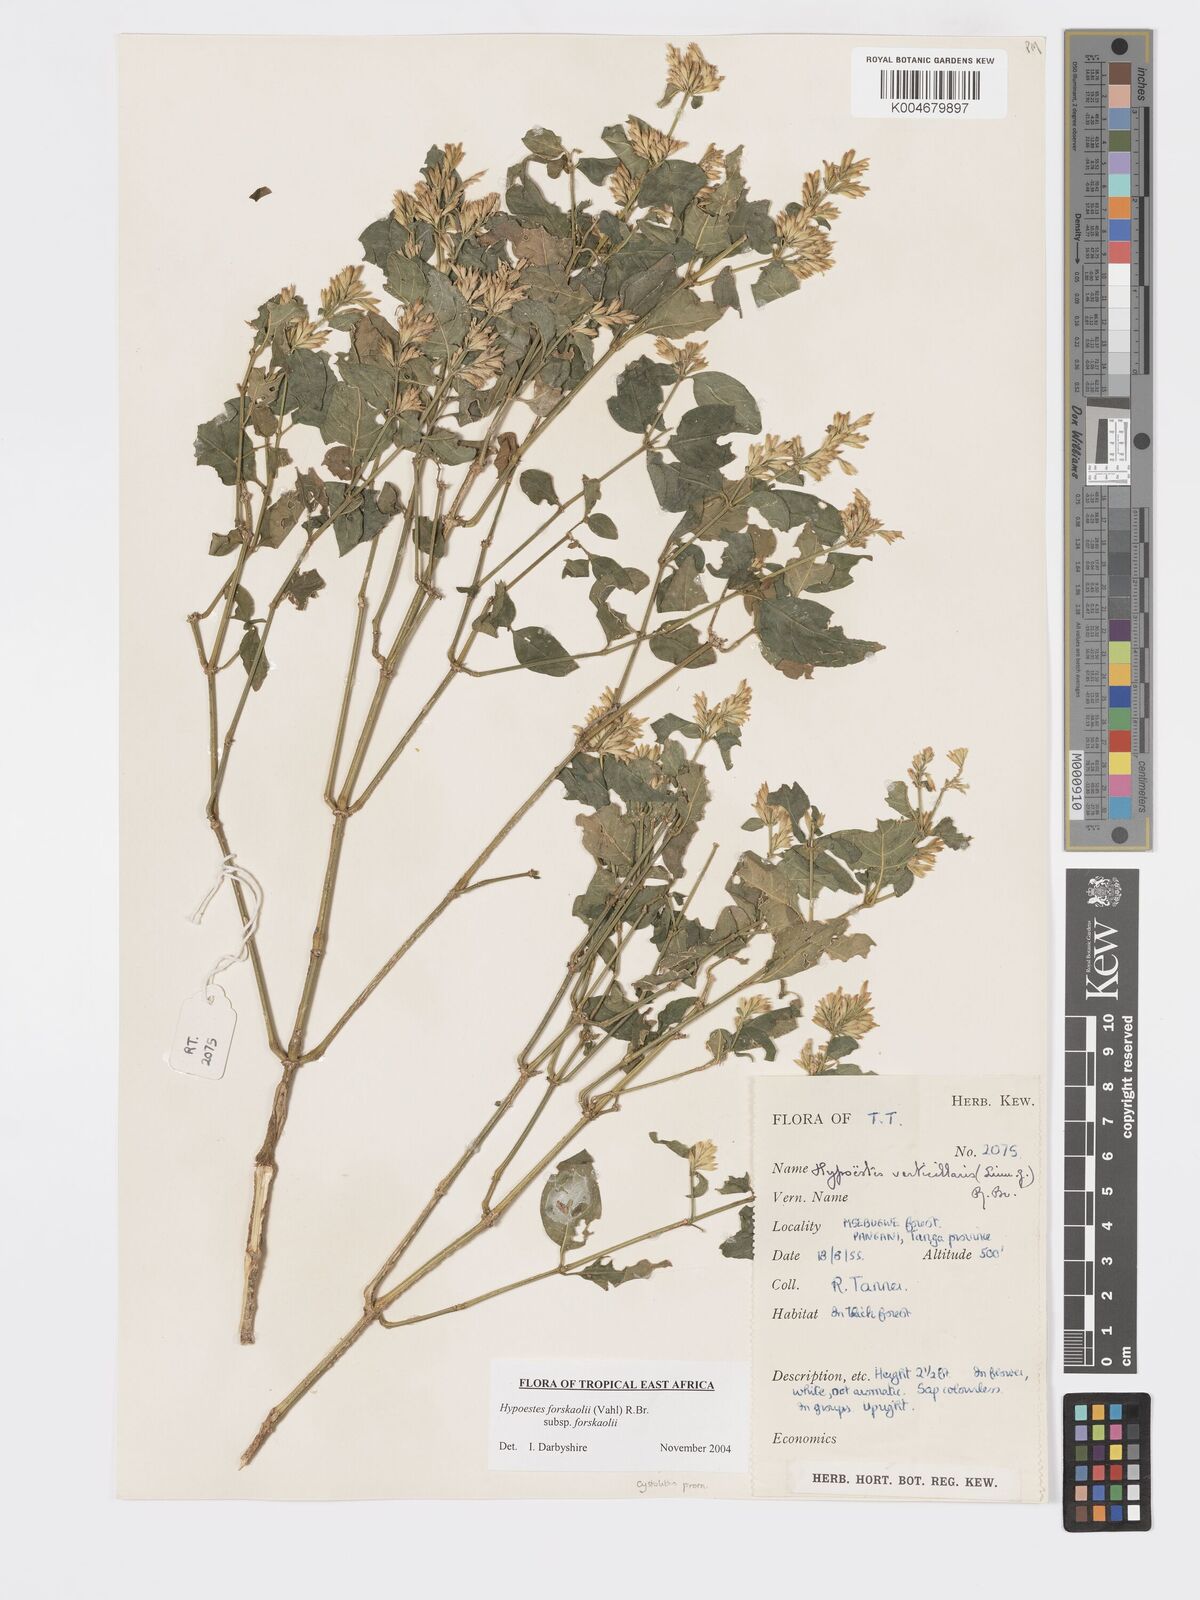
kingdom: Plantae
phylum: Tracheophyta
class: Magnoliopsida
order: Lamiales
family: Acanthaceae
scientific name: Acanthaceae
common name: Acanthaceae
